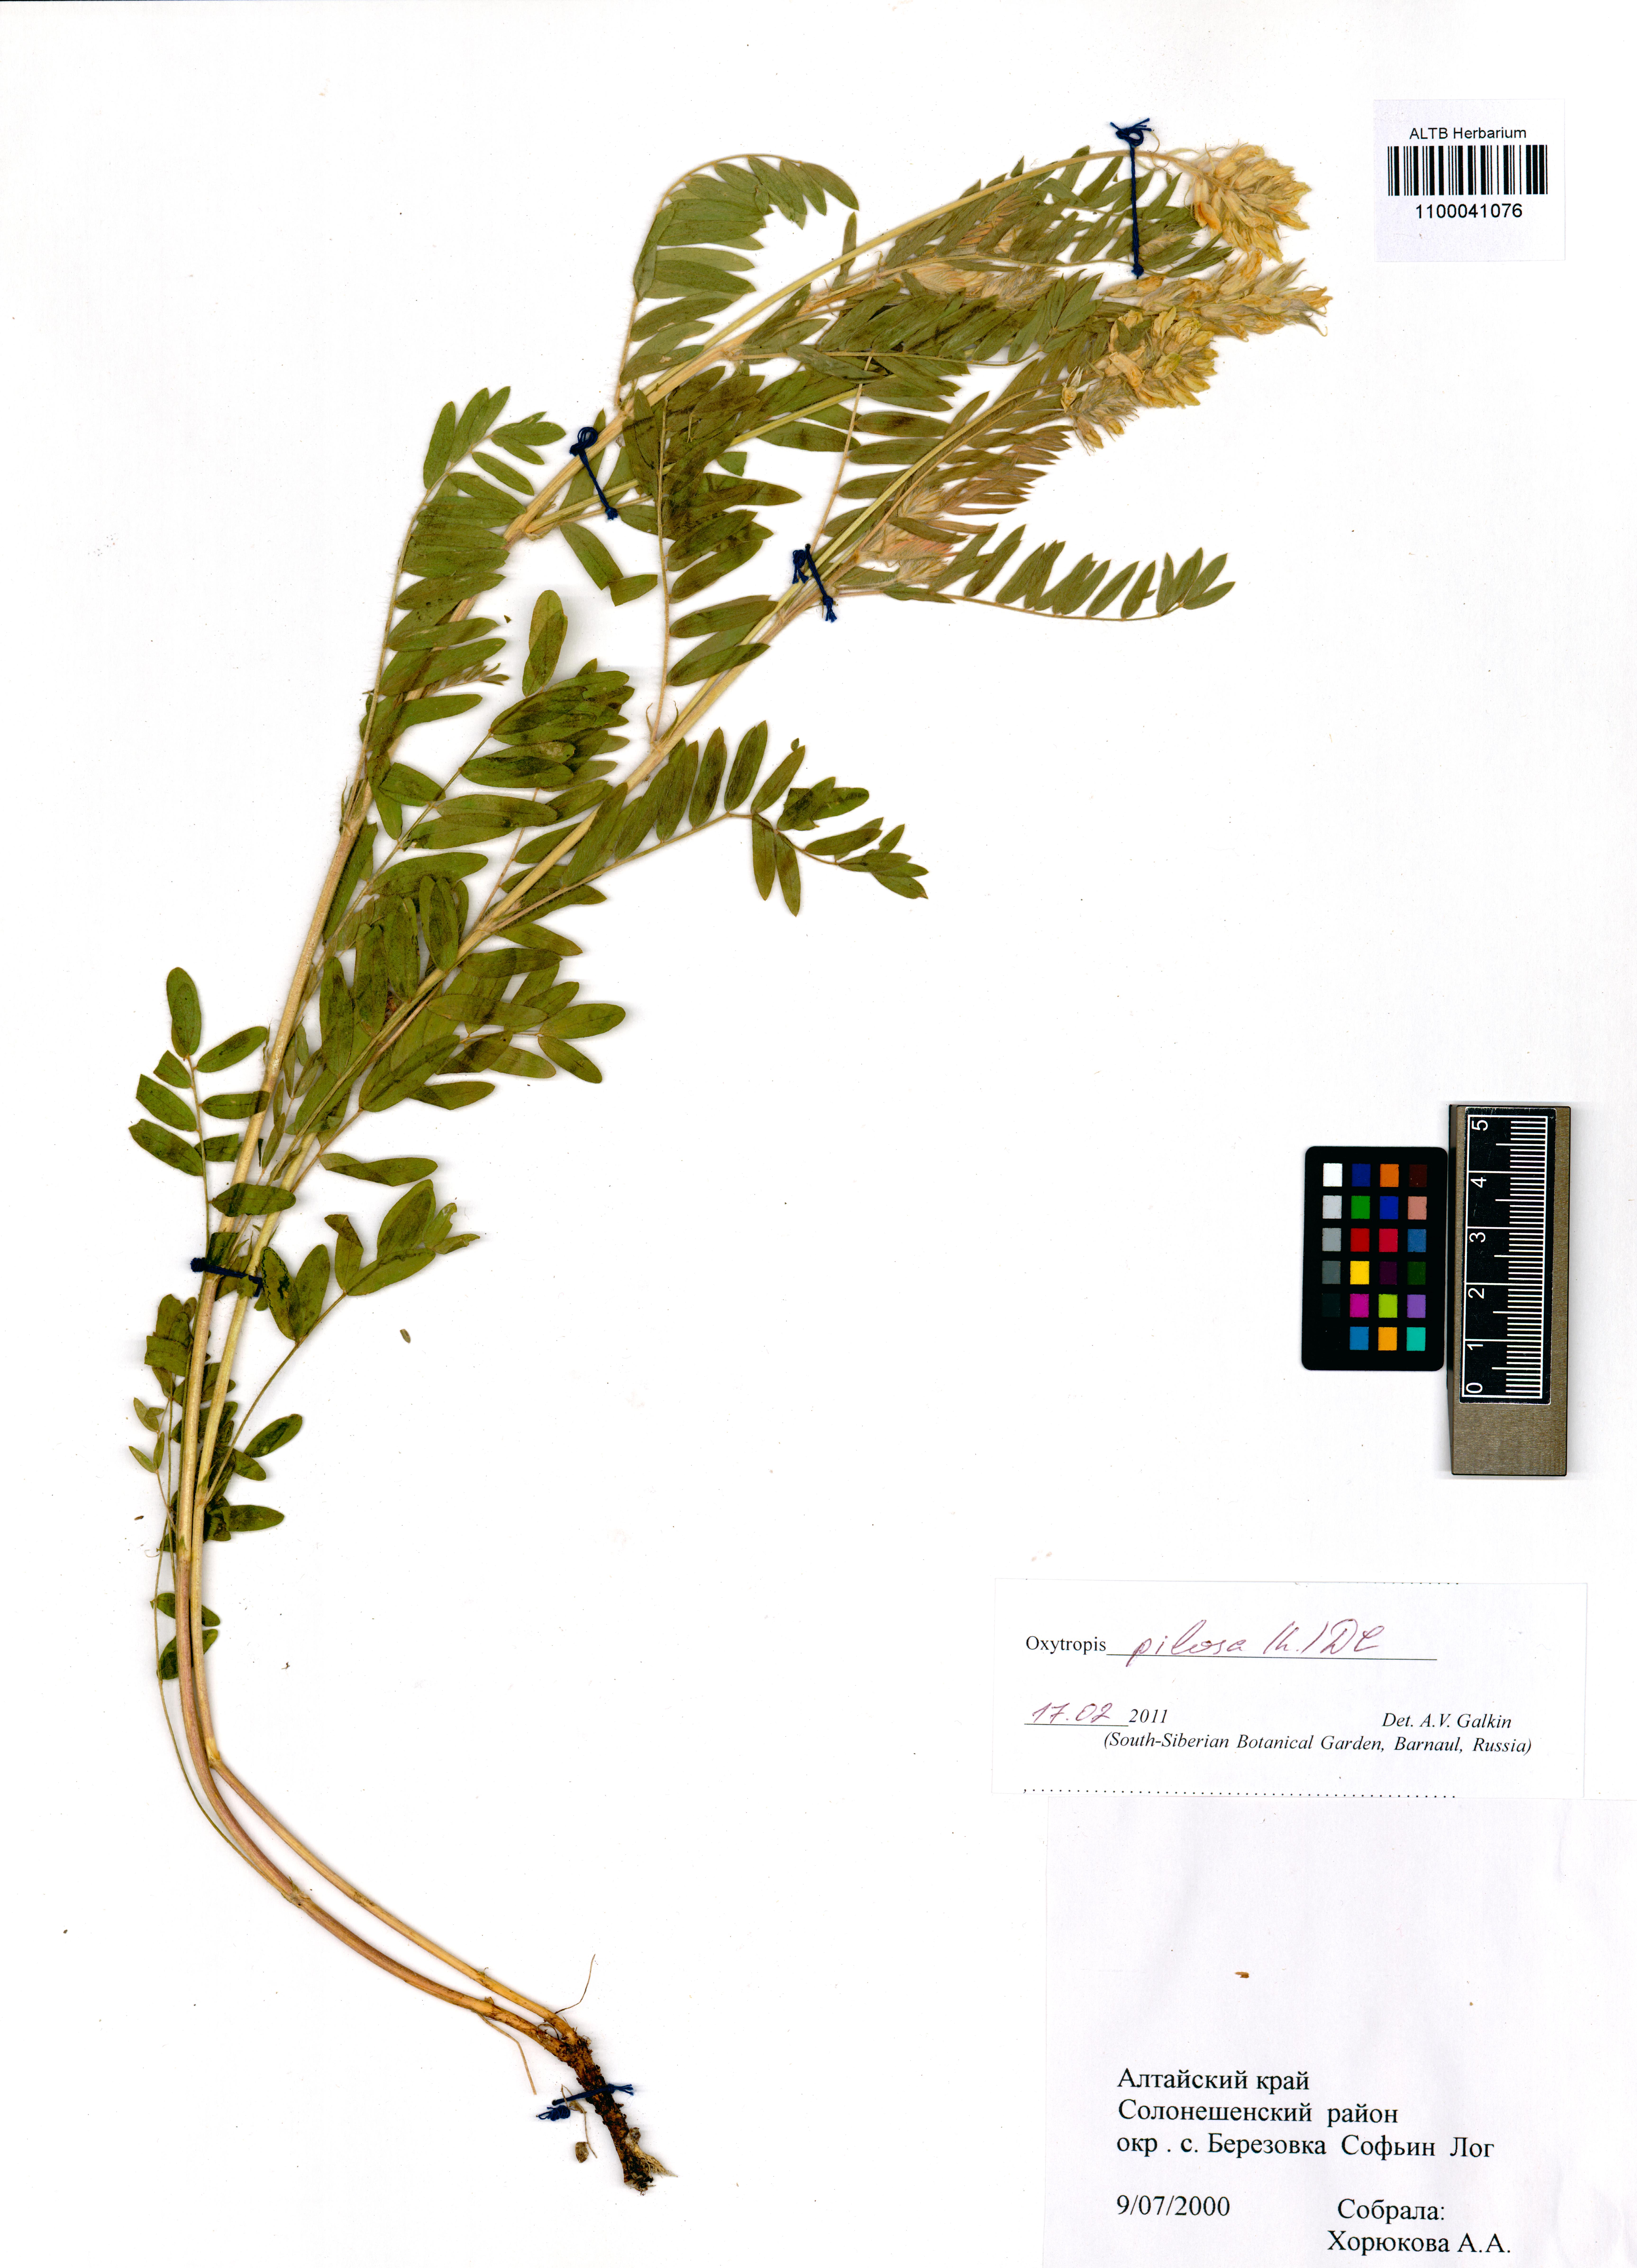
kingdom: Plantae
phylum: Tracheophyta
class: Magnoliopsida
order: Fabales
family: Fabaceae
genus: Oxytropis
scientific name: Oxytropis pilosa
